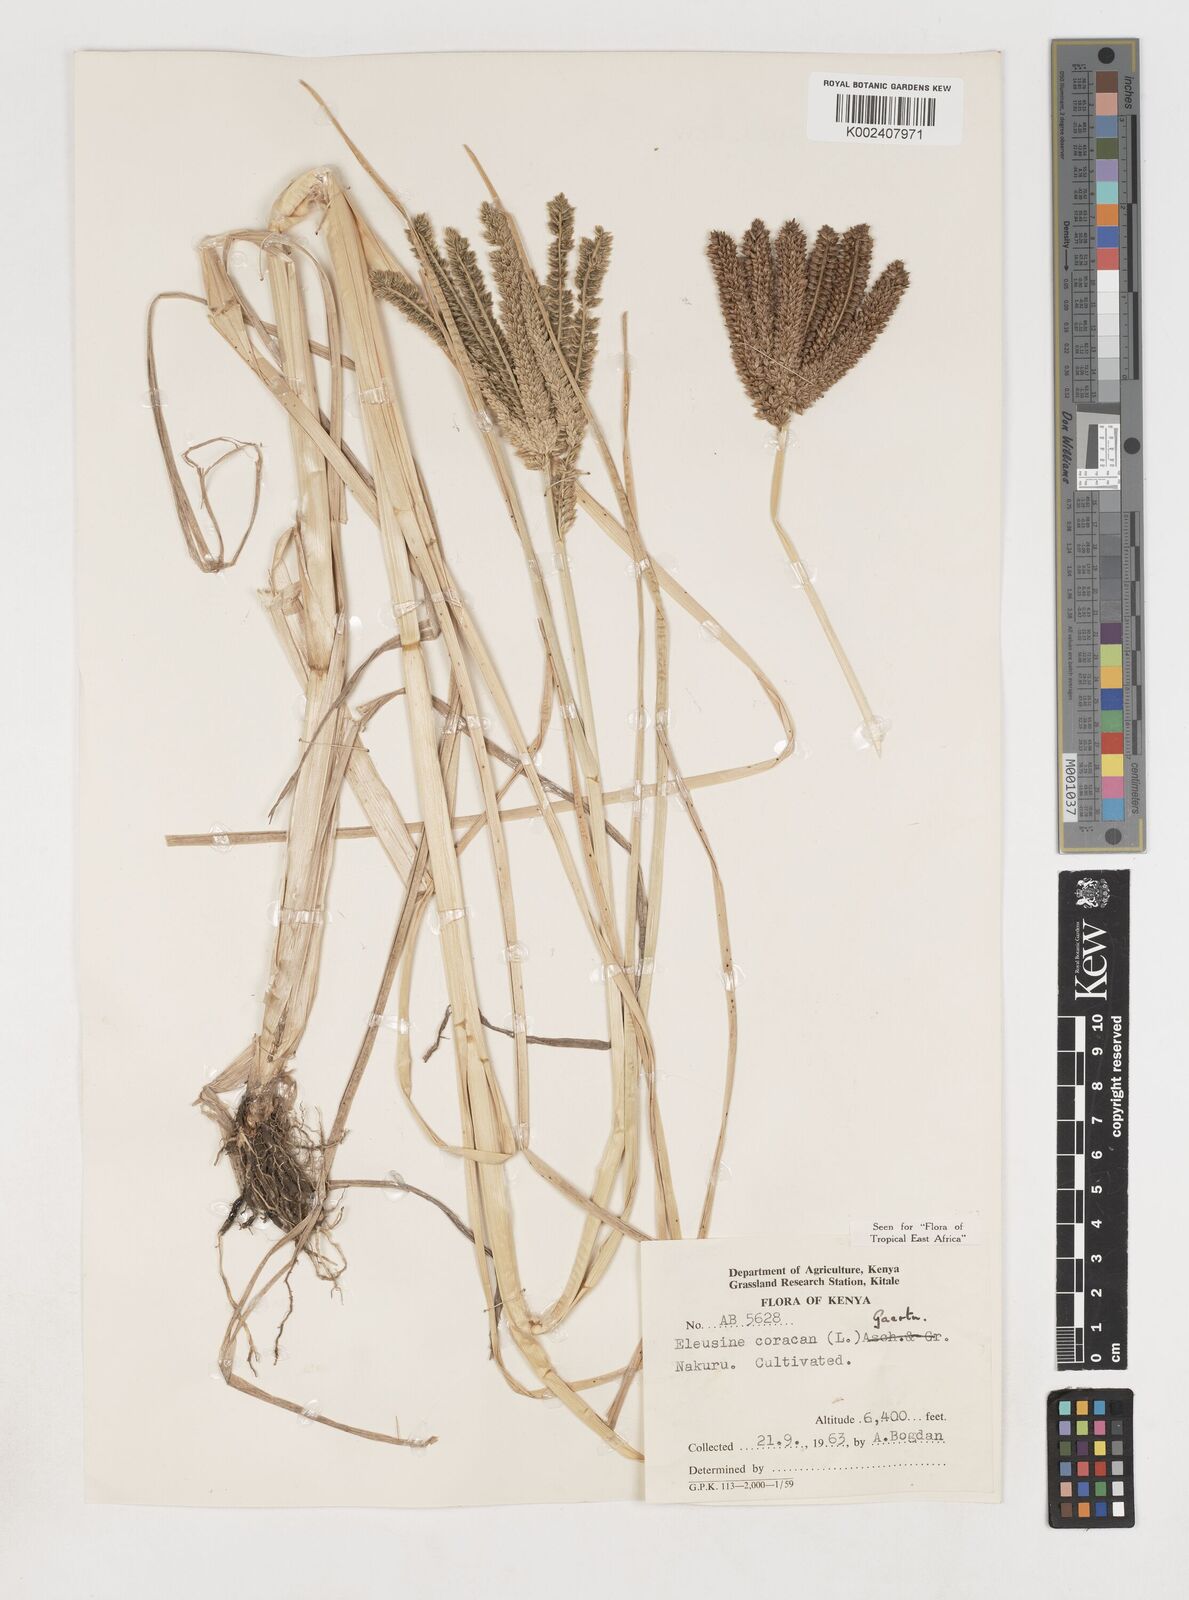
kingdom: Plantae
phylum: Tracheophyta
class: Liliopsida
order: Poales
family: Poaceae
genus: Eleusine
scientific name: Eleusine coracana
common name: Finger millet
